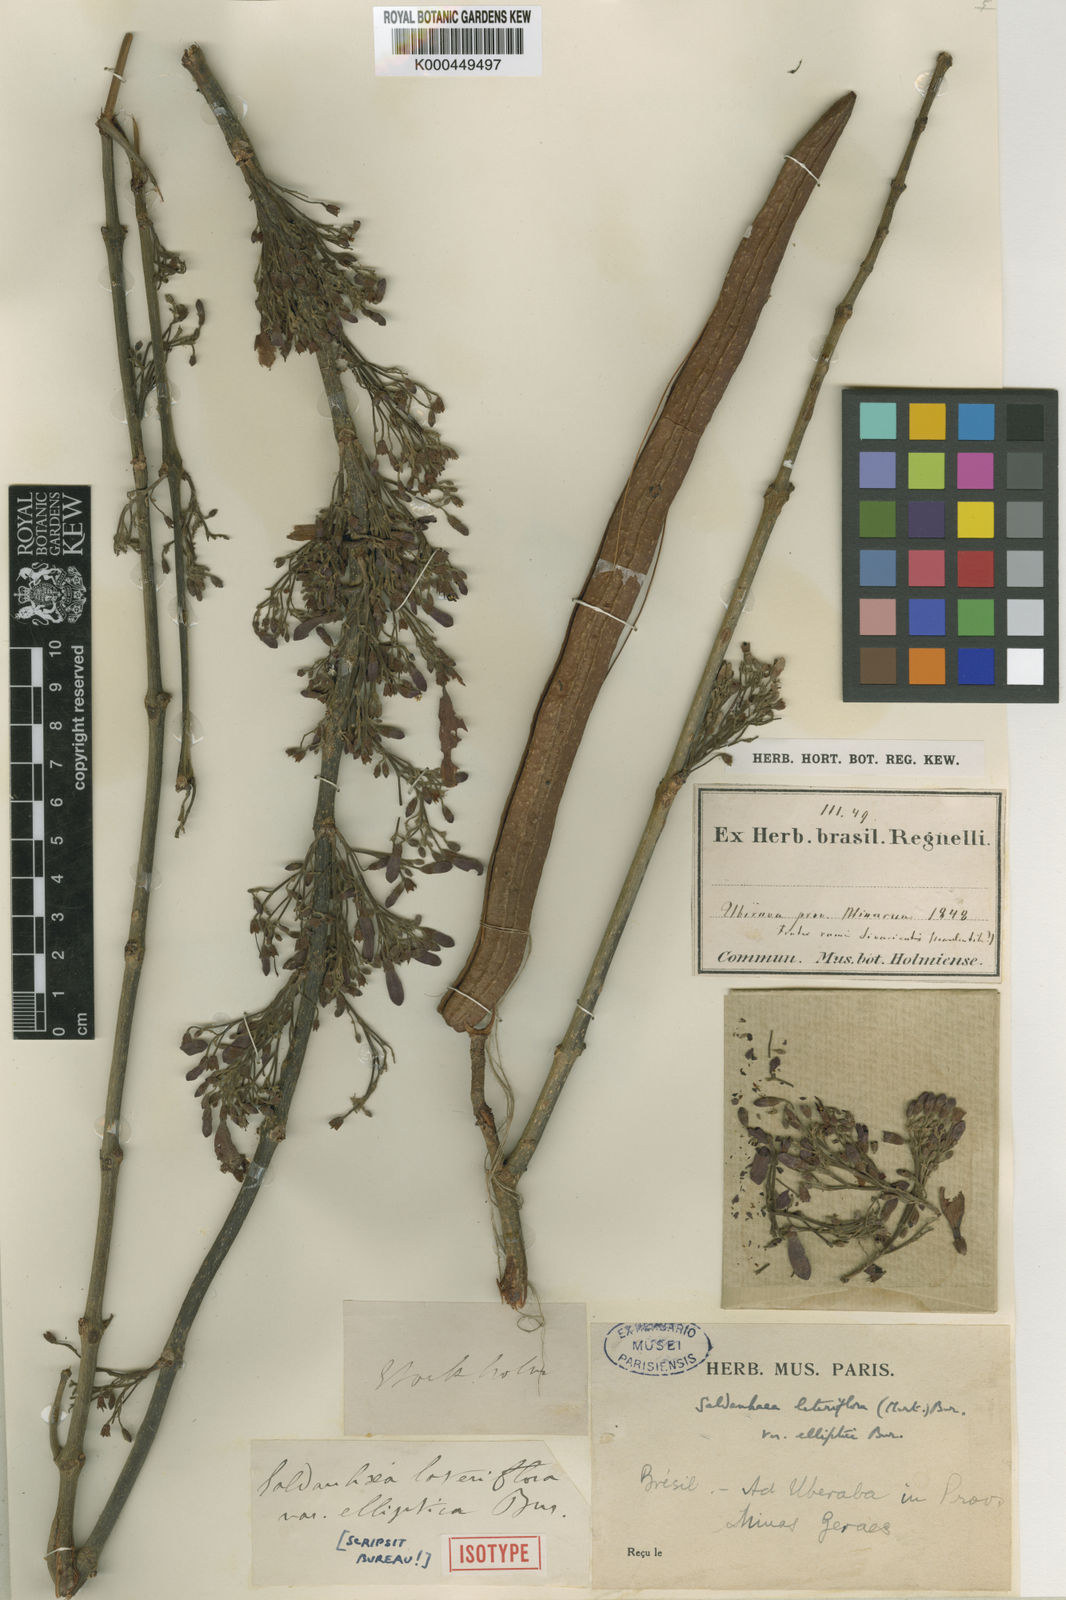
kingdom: Plantae
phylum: Tracheophyta
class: Magnoliopsida
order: Lamiales
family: Bignoniaceae
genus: Cuspidaria
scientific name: Cuspidaria lateriflora
